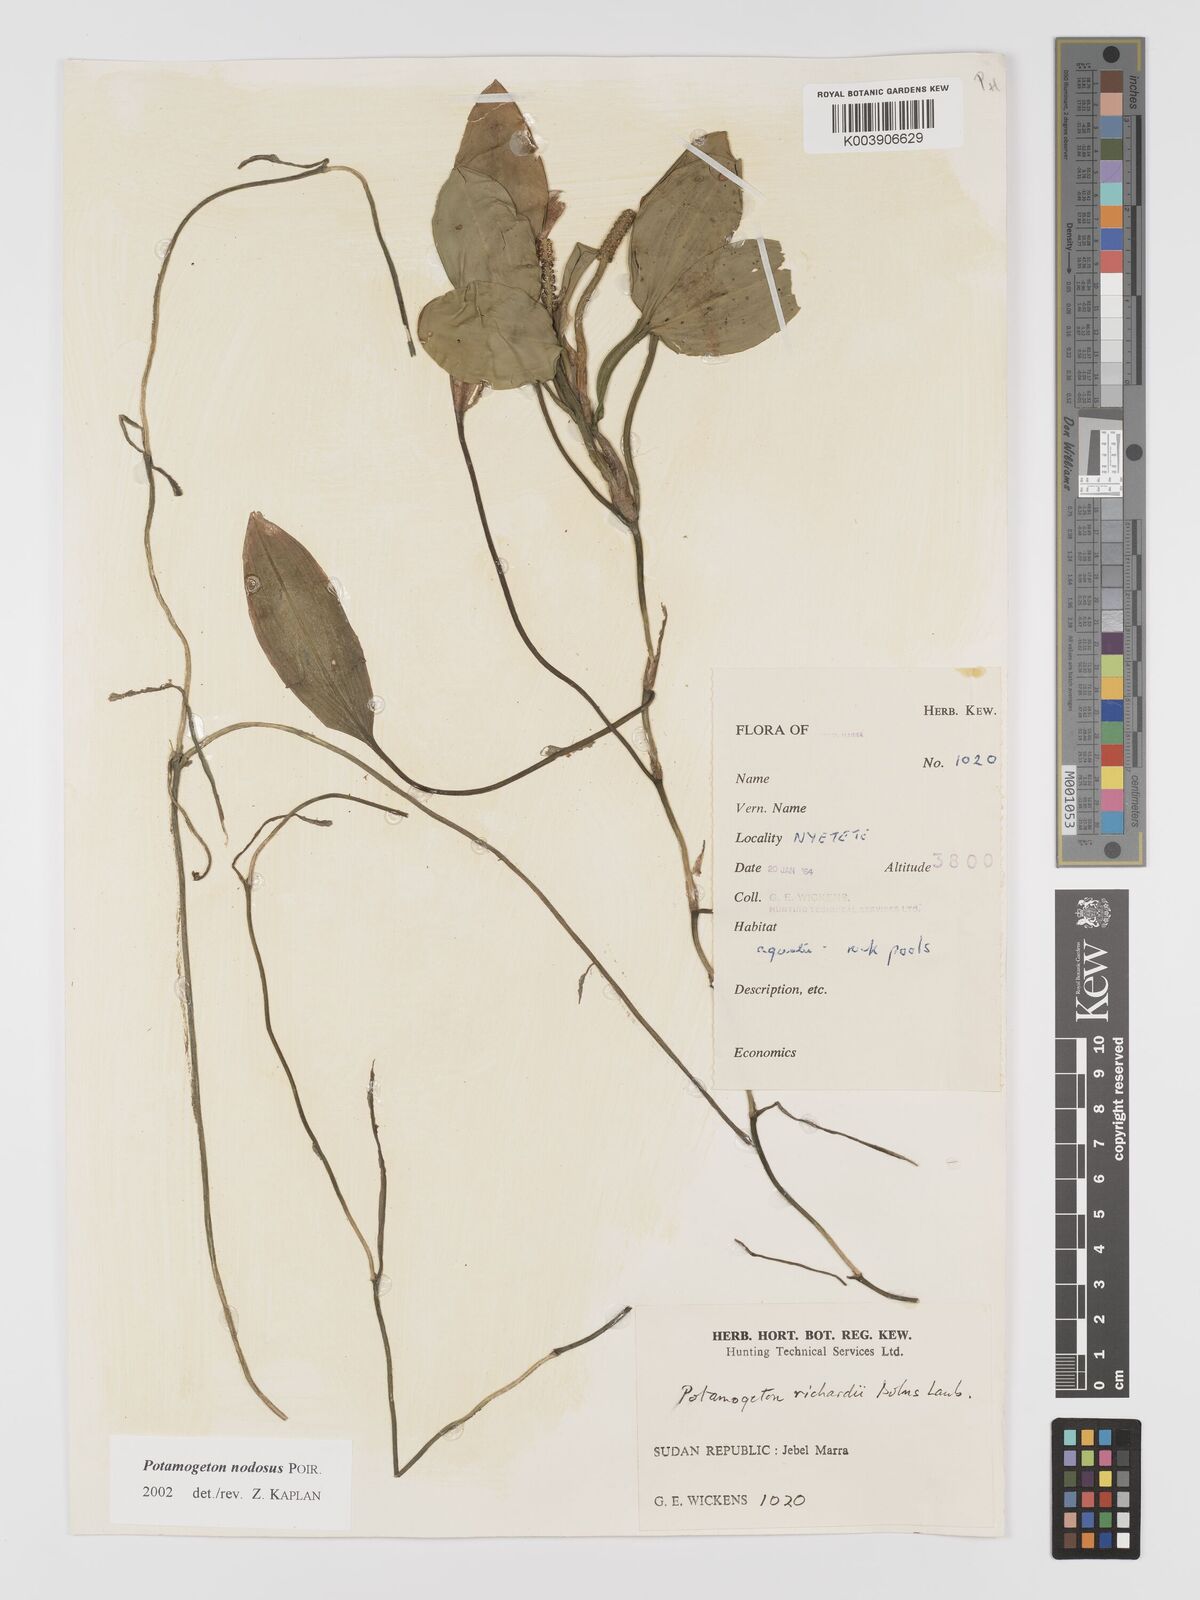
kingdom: Plantae
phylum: Tracheophyta
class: Liliopsida
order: Alismatales
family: Potamogetonaceae
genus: Potamogeton
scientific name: Potamogeton nodosus
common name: Loddon pondweed
